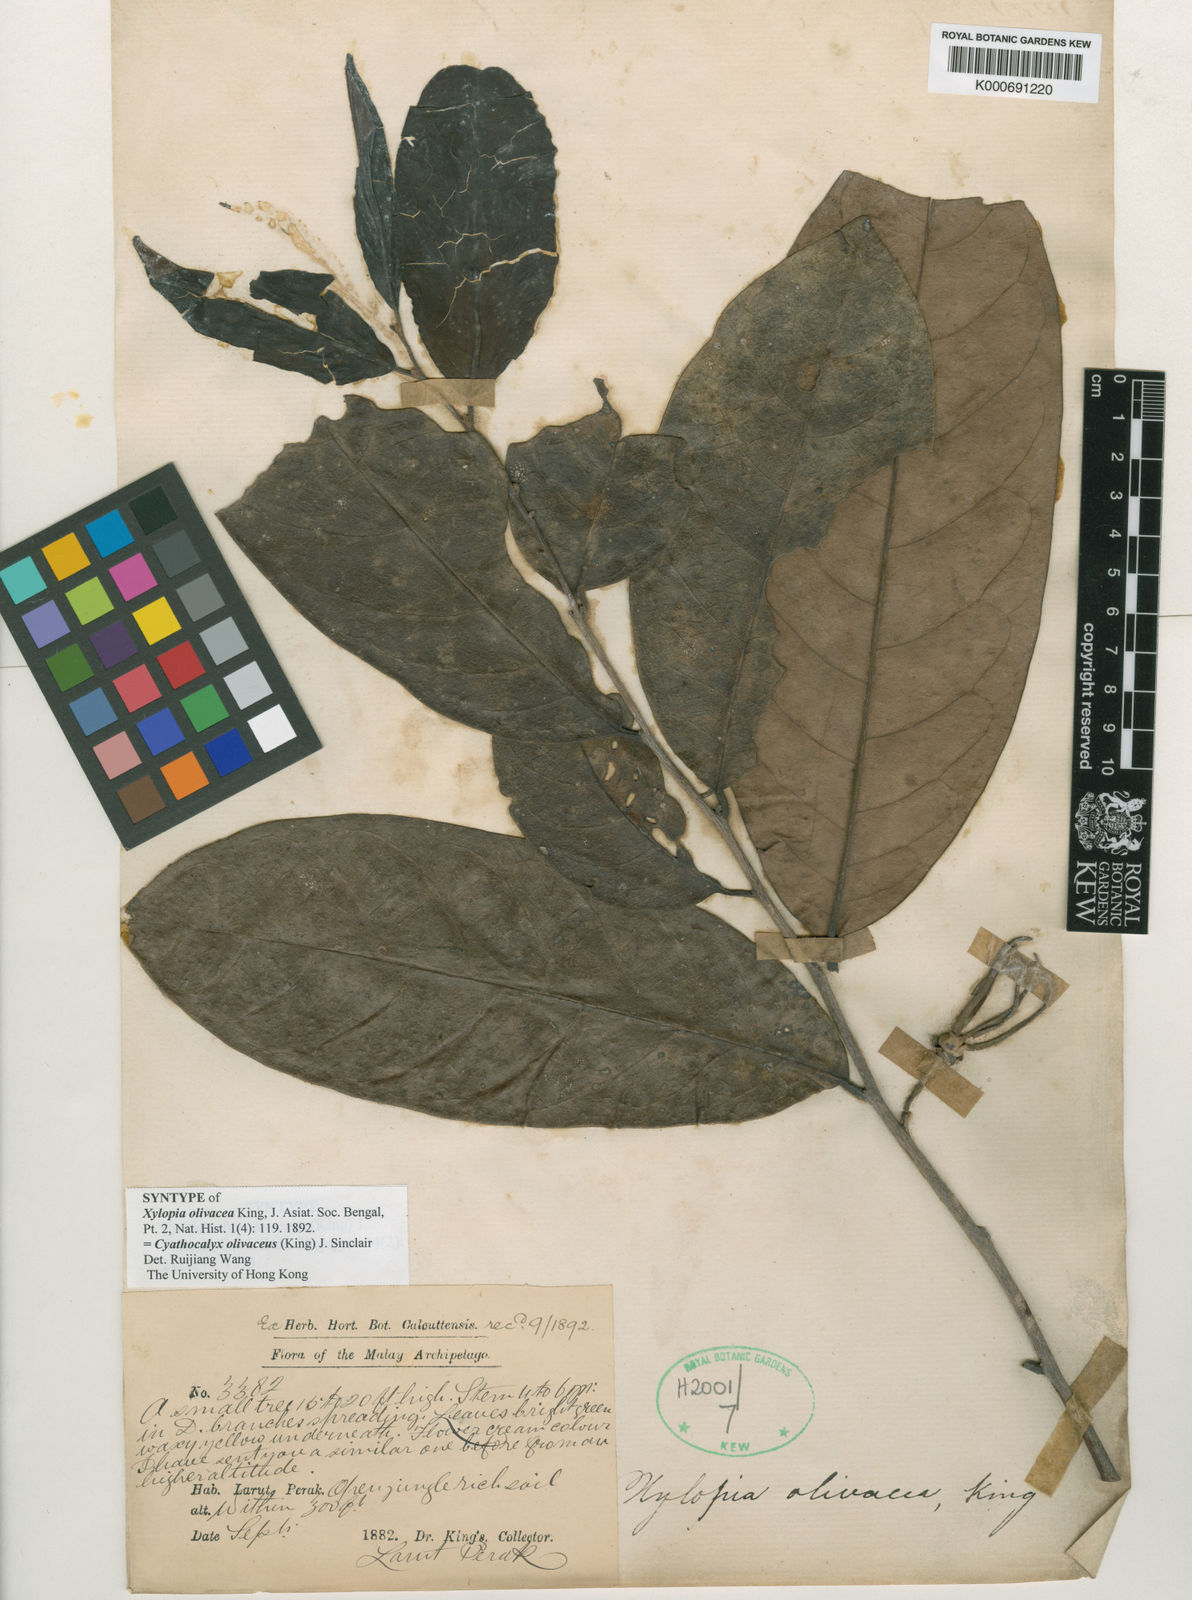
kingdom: Plantae
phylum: Tracheophyta
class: Magnoliopsida
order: Magnoliales
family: Annonaceae
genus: Drepananthus
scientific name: Drepananthus olivaceus
